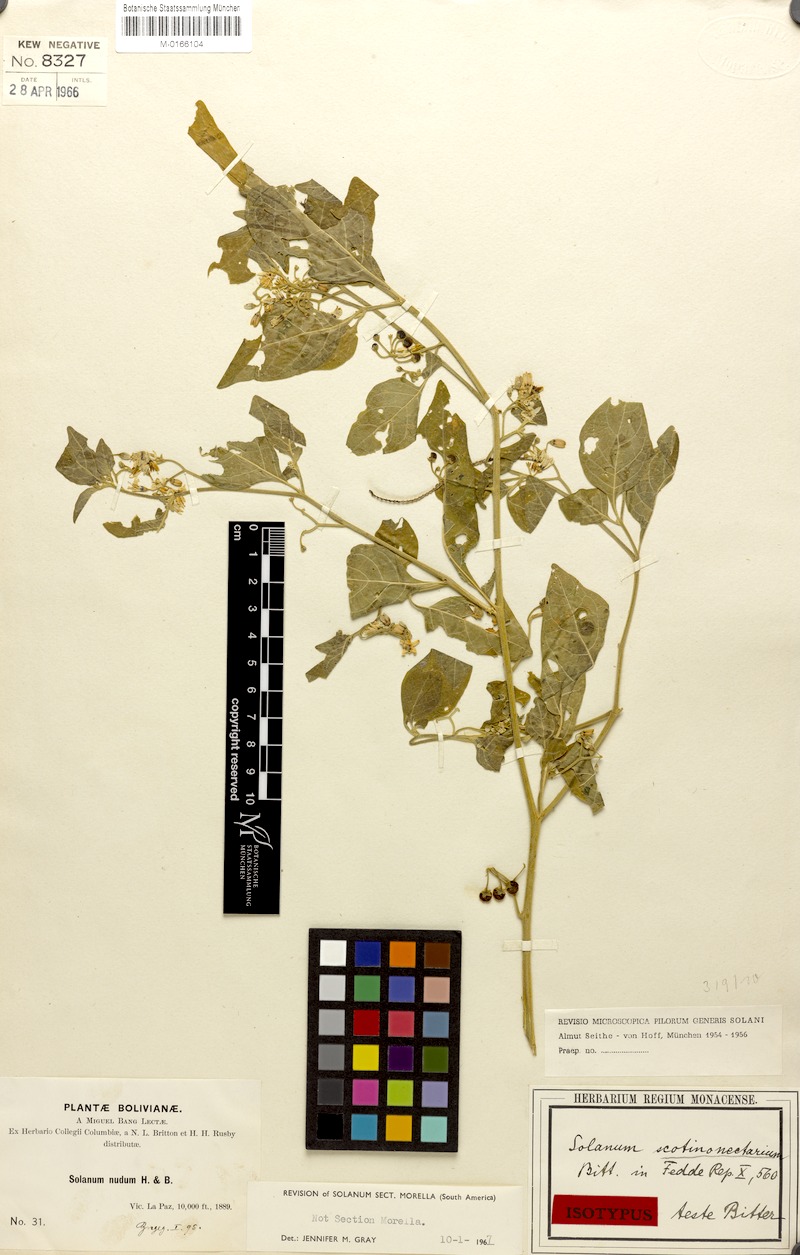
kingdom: Plantae
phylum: Tracheophyta
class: Magnoliopsida
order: Solanales
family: Solanaceae
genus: Solanum
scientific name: Solanum pallidum
